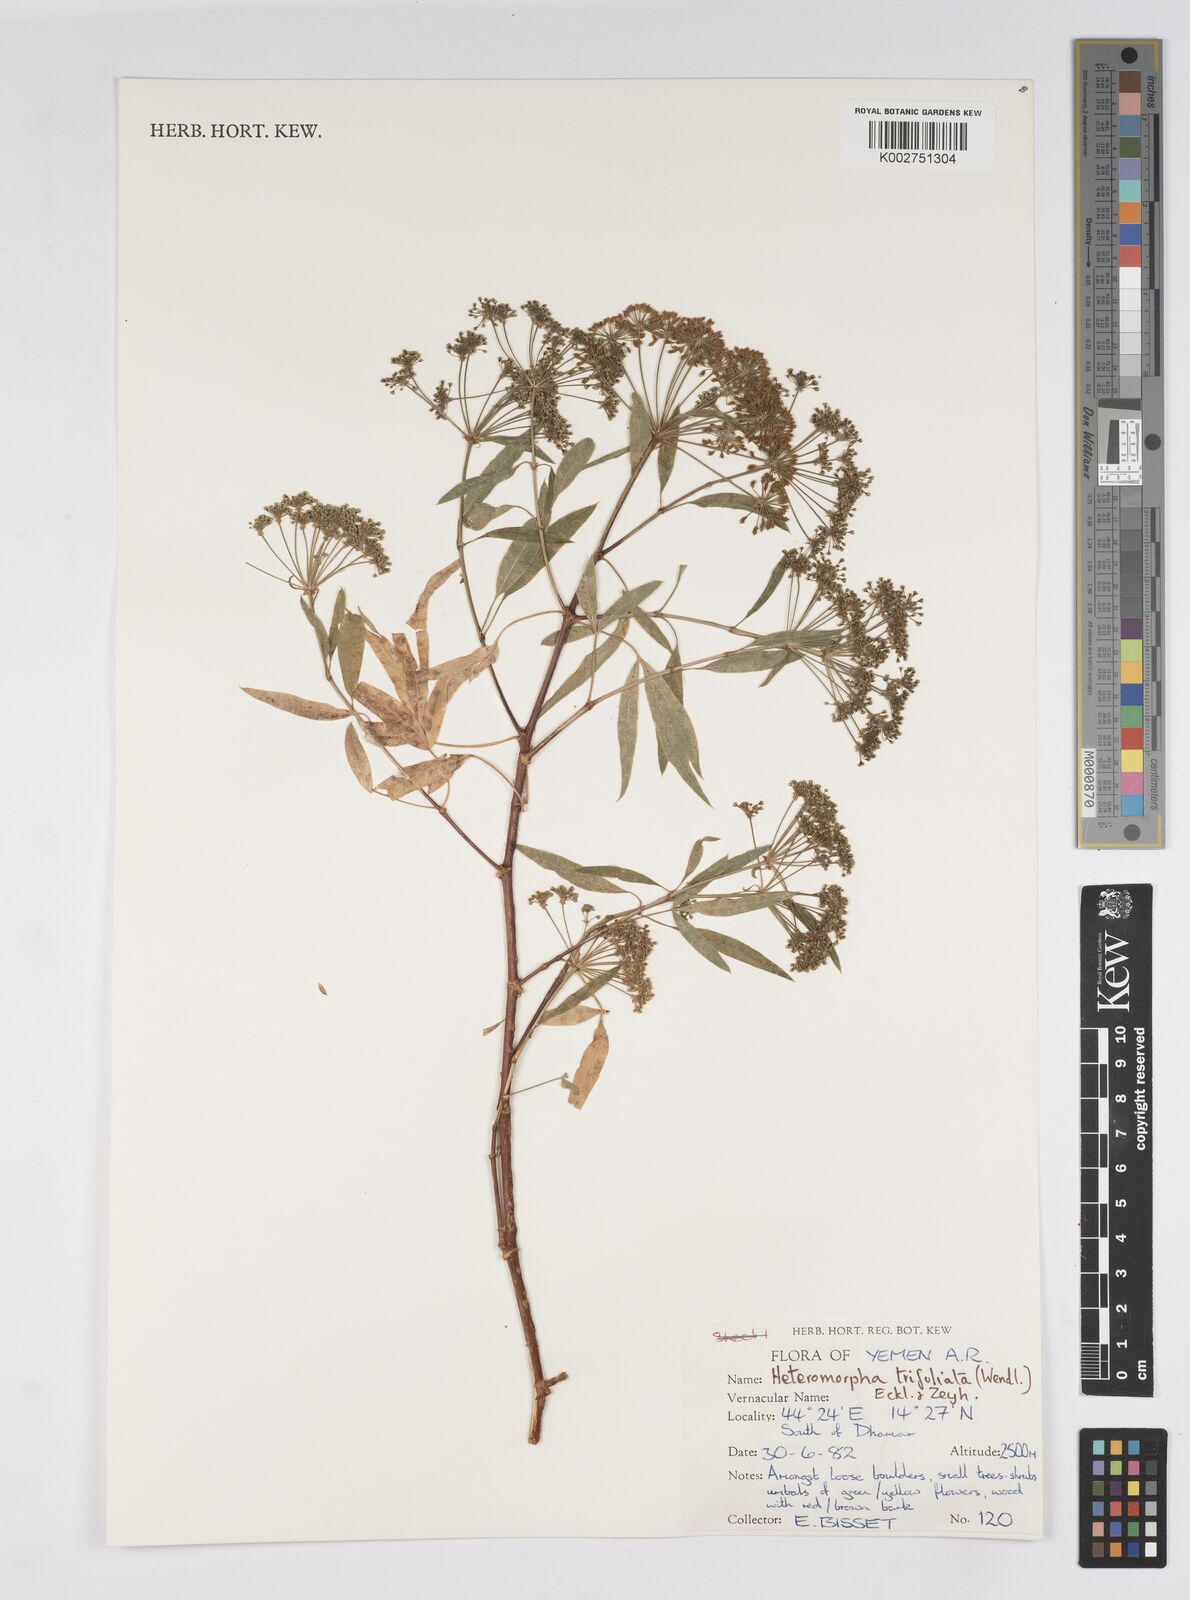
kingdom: Plantae
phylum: Tracheophyta
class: Magnoliopsida
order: Apiales
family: Apiaceae
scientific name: Apiaceae
